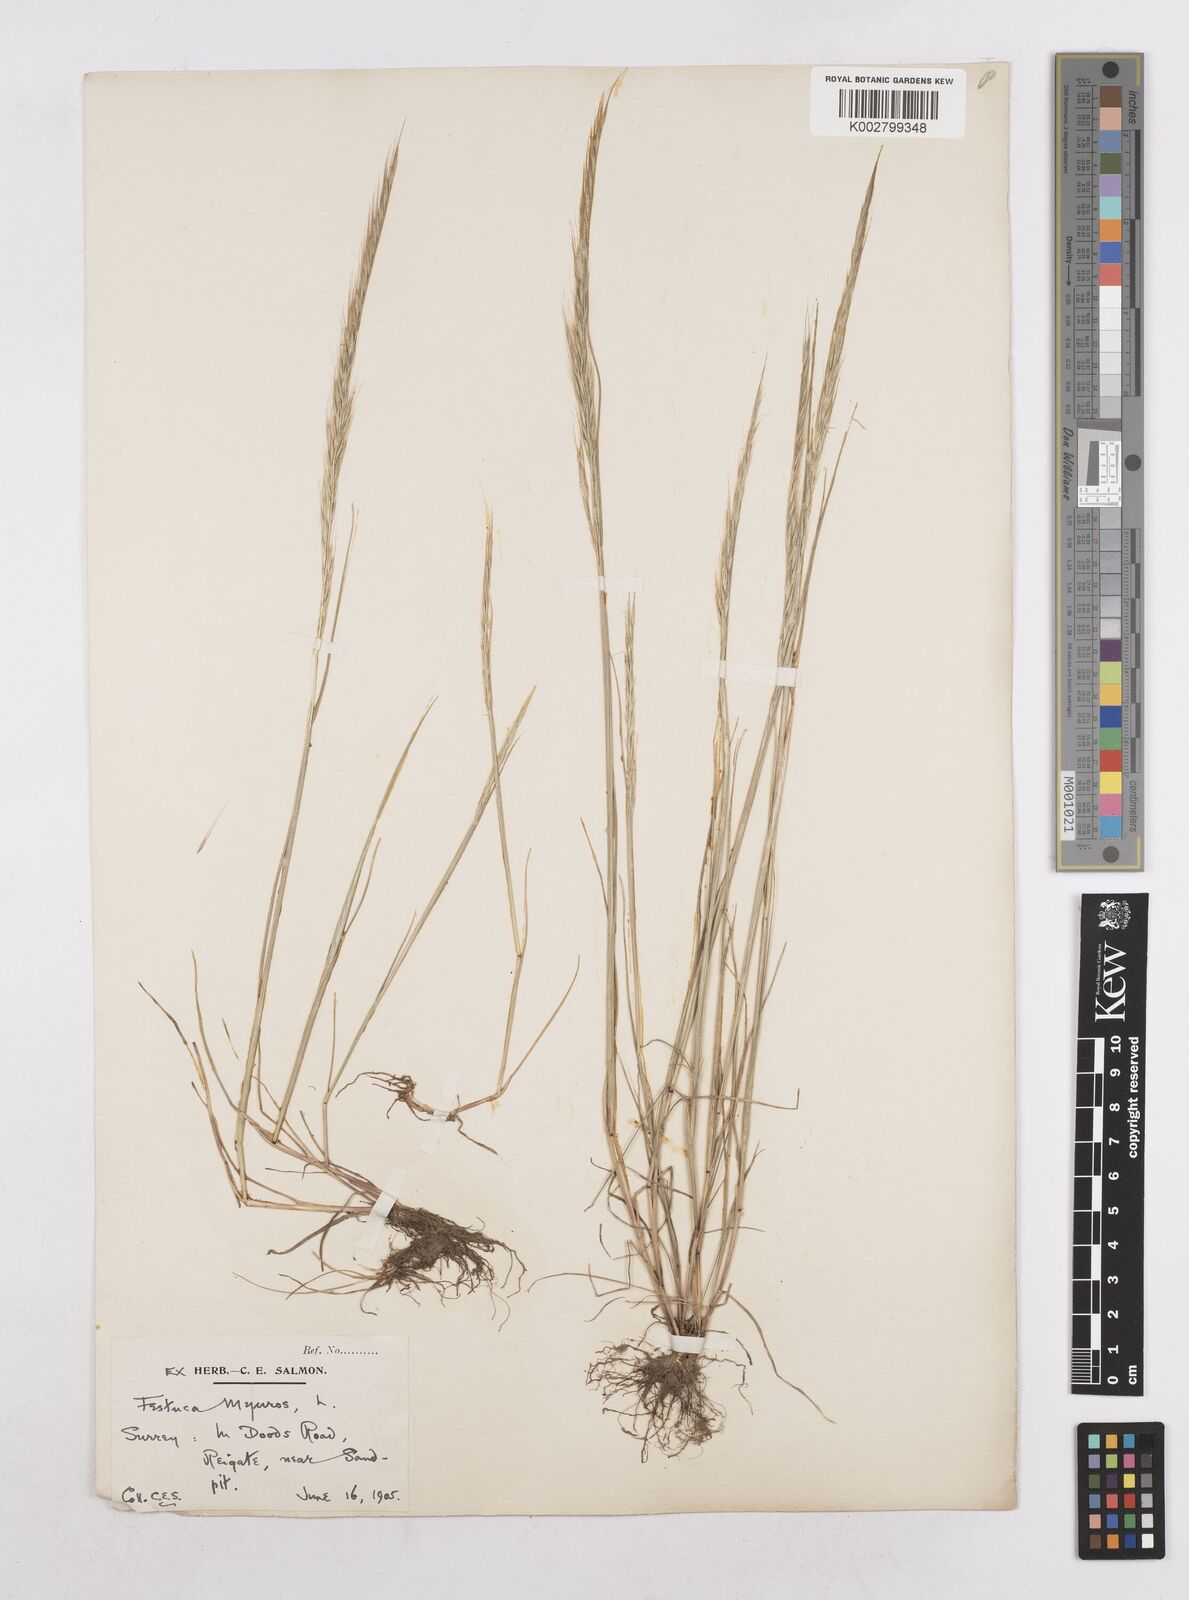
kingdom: Plantae
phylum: Tracheophyta
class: Liliopsida
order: Poales
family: Poaceae
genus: Festuca
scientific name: Festuca myuros
